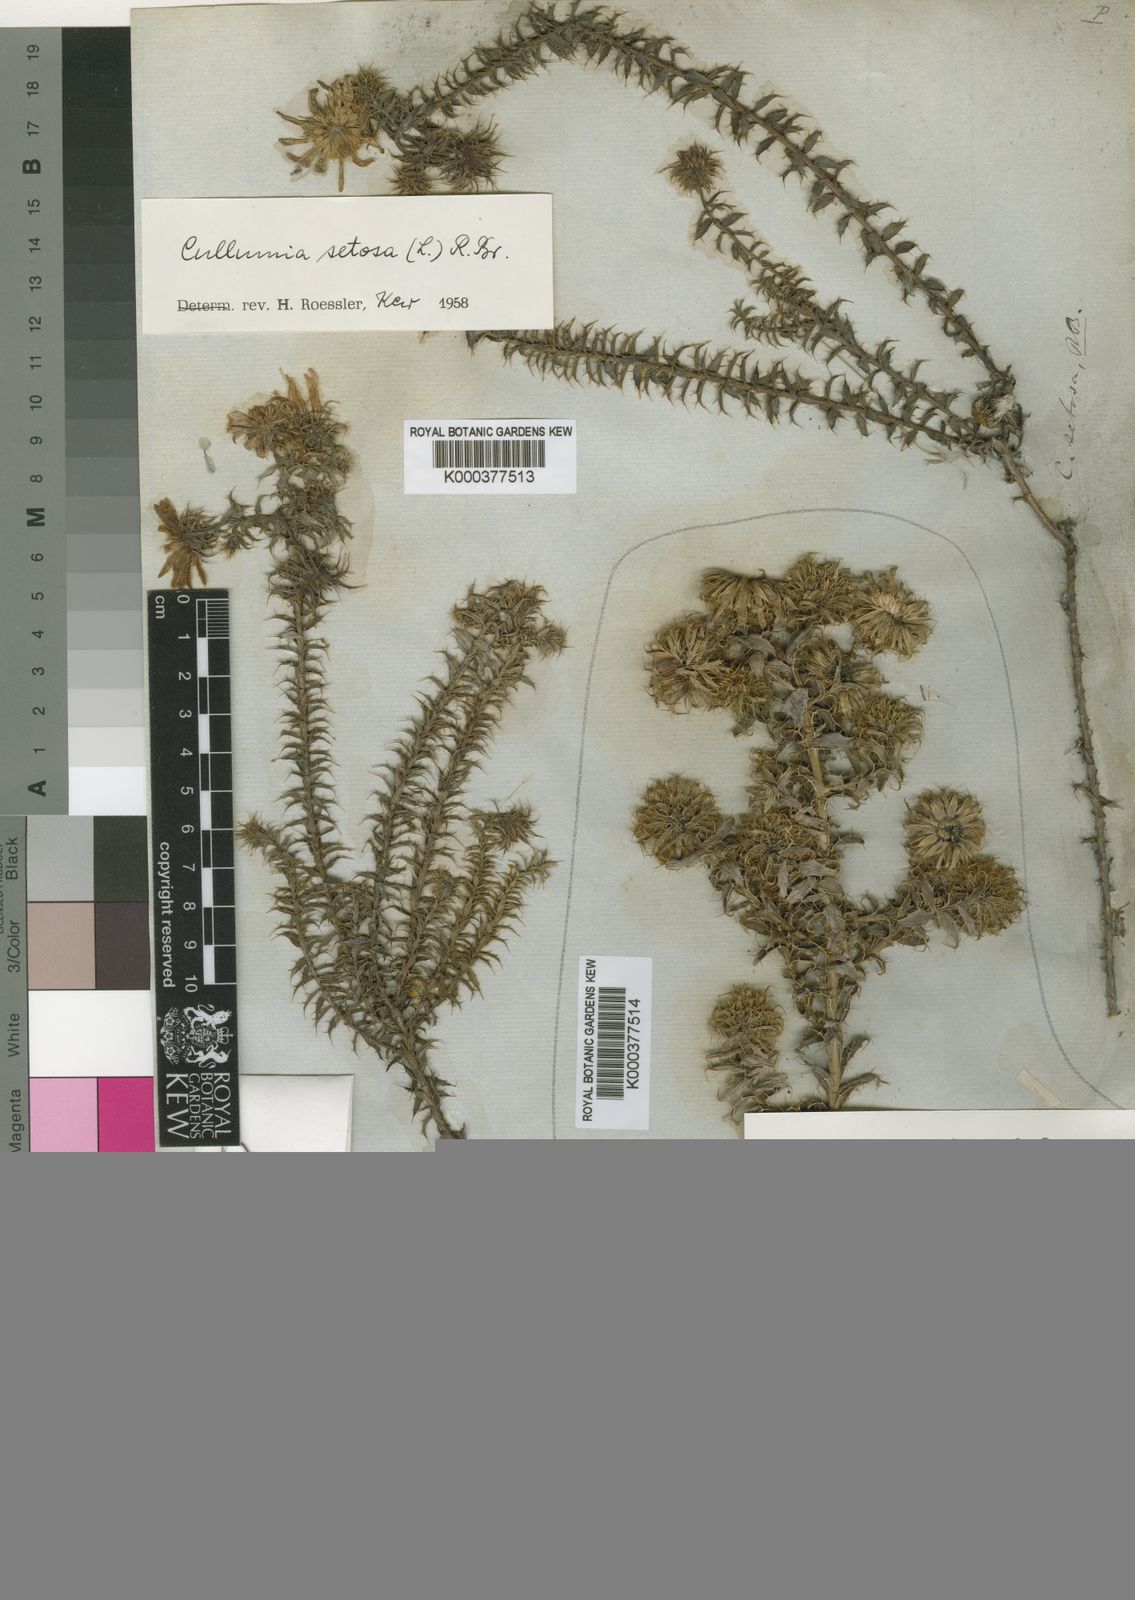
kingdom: Plantae
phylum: Tracheophyta
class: Magnoliopsida
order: Asterales
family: Asteraceae
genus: Cullumia
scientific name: Cullumia setosa
